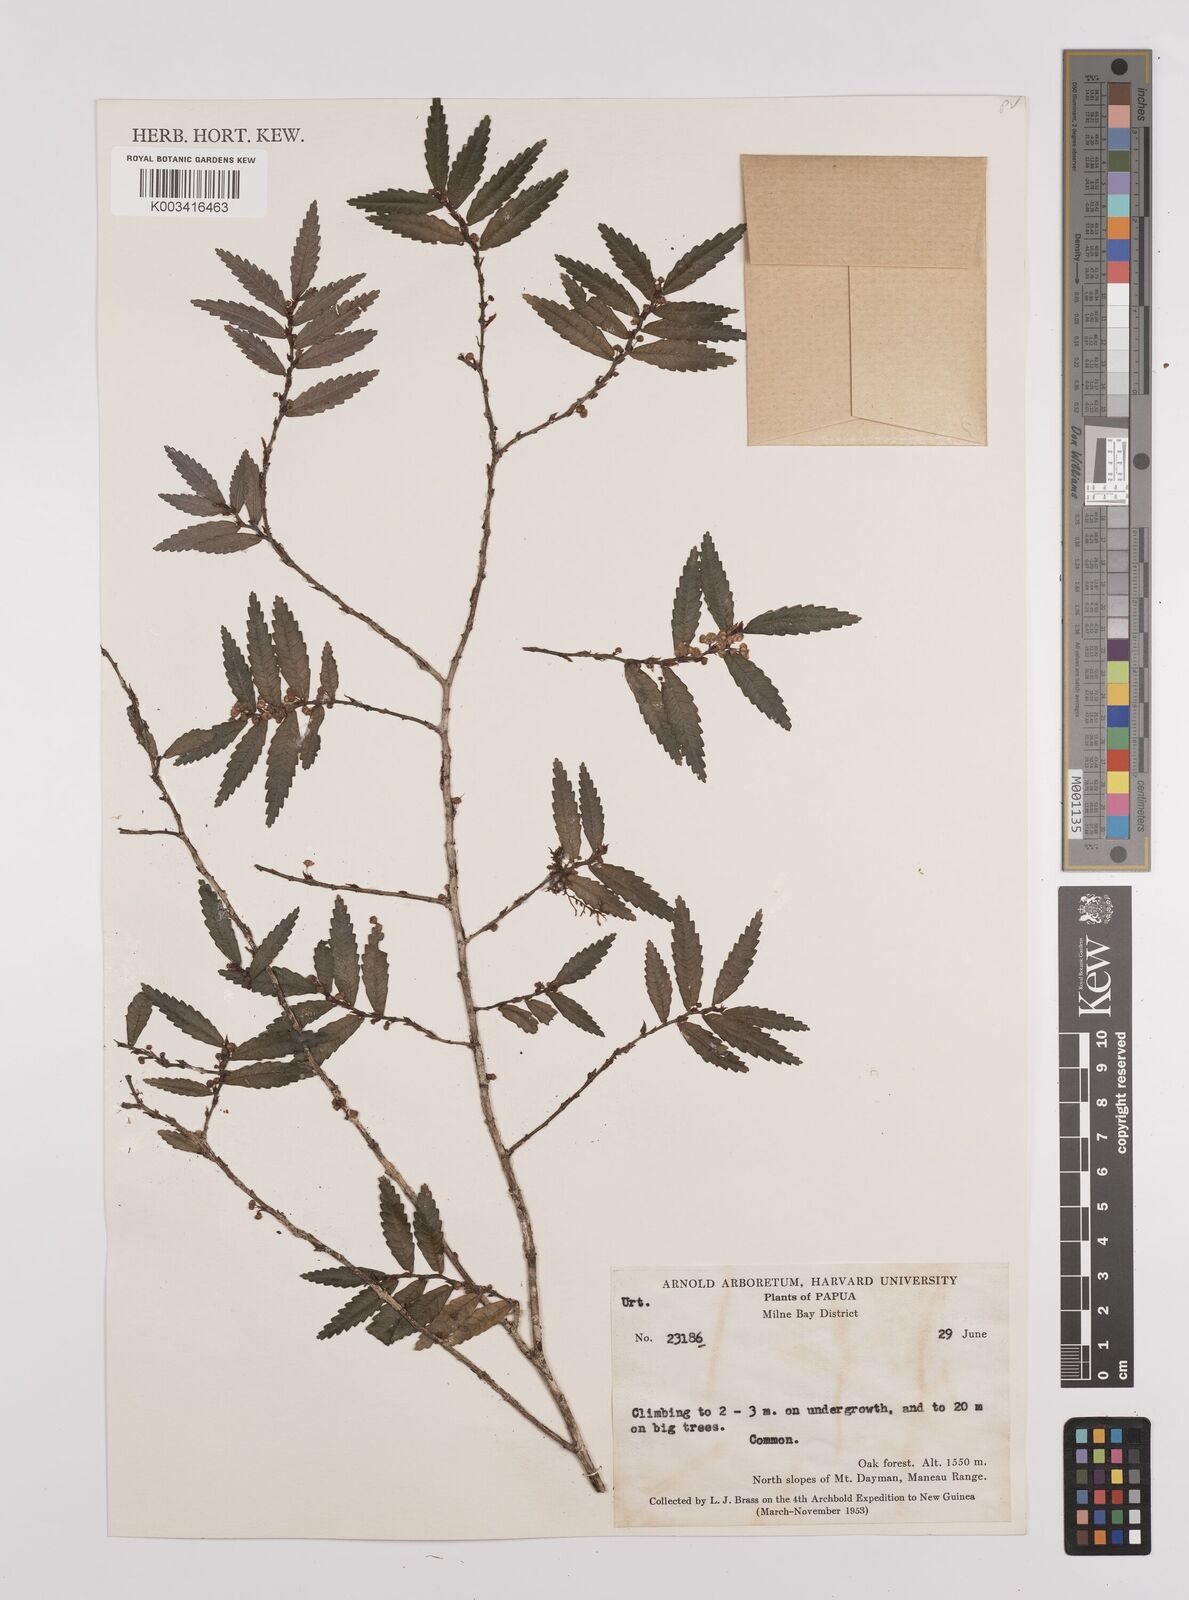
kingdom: Plantae
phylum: Tracheophyta
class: Magnoliopsida
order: Rosales
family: Urticaceae
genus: Elatostema
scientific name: Elatostema
